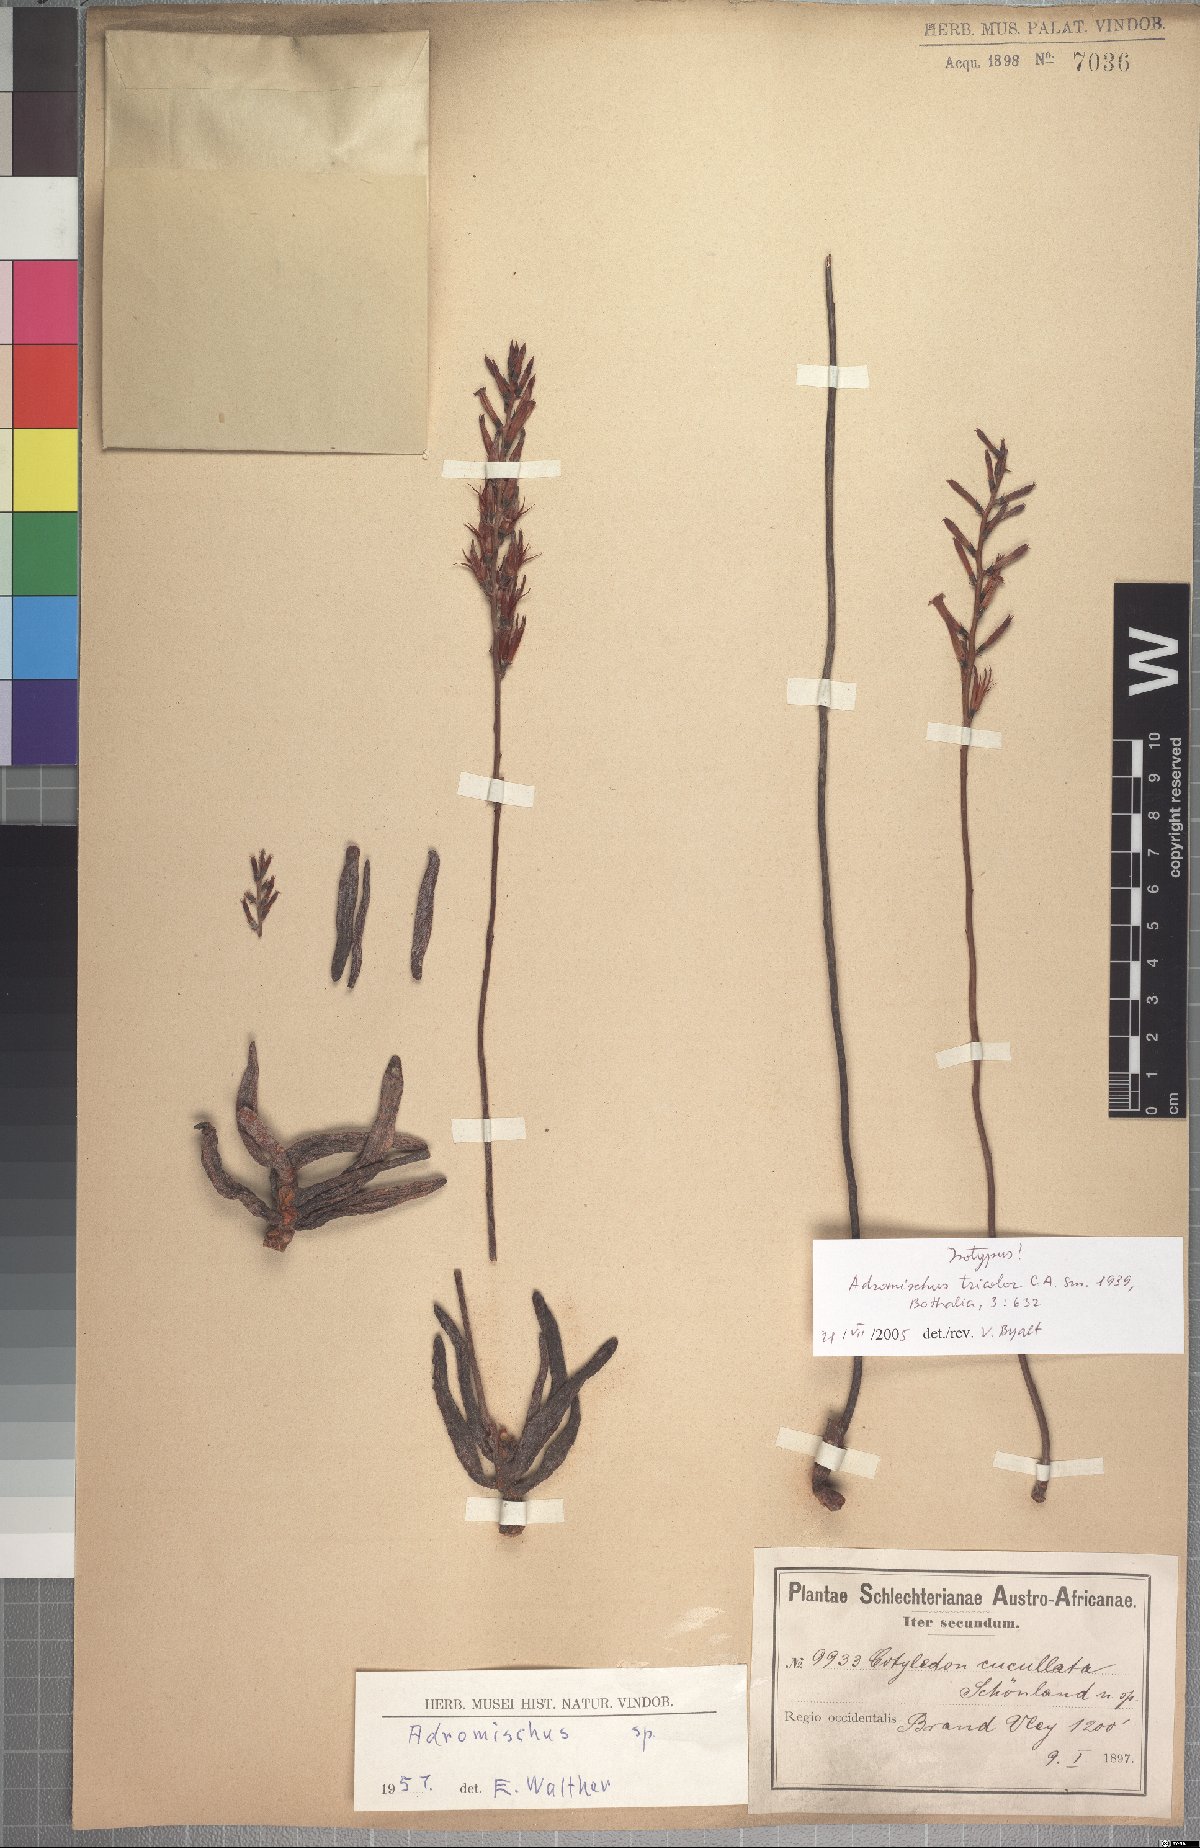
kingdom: Plantae
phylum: Tracheophyta
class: Magnoliopsida
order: Saxifragales
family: Crassulaceae
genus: Adromischus
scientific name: Adromischus filicaulis
